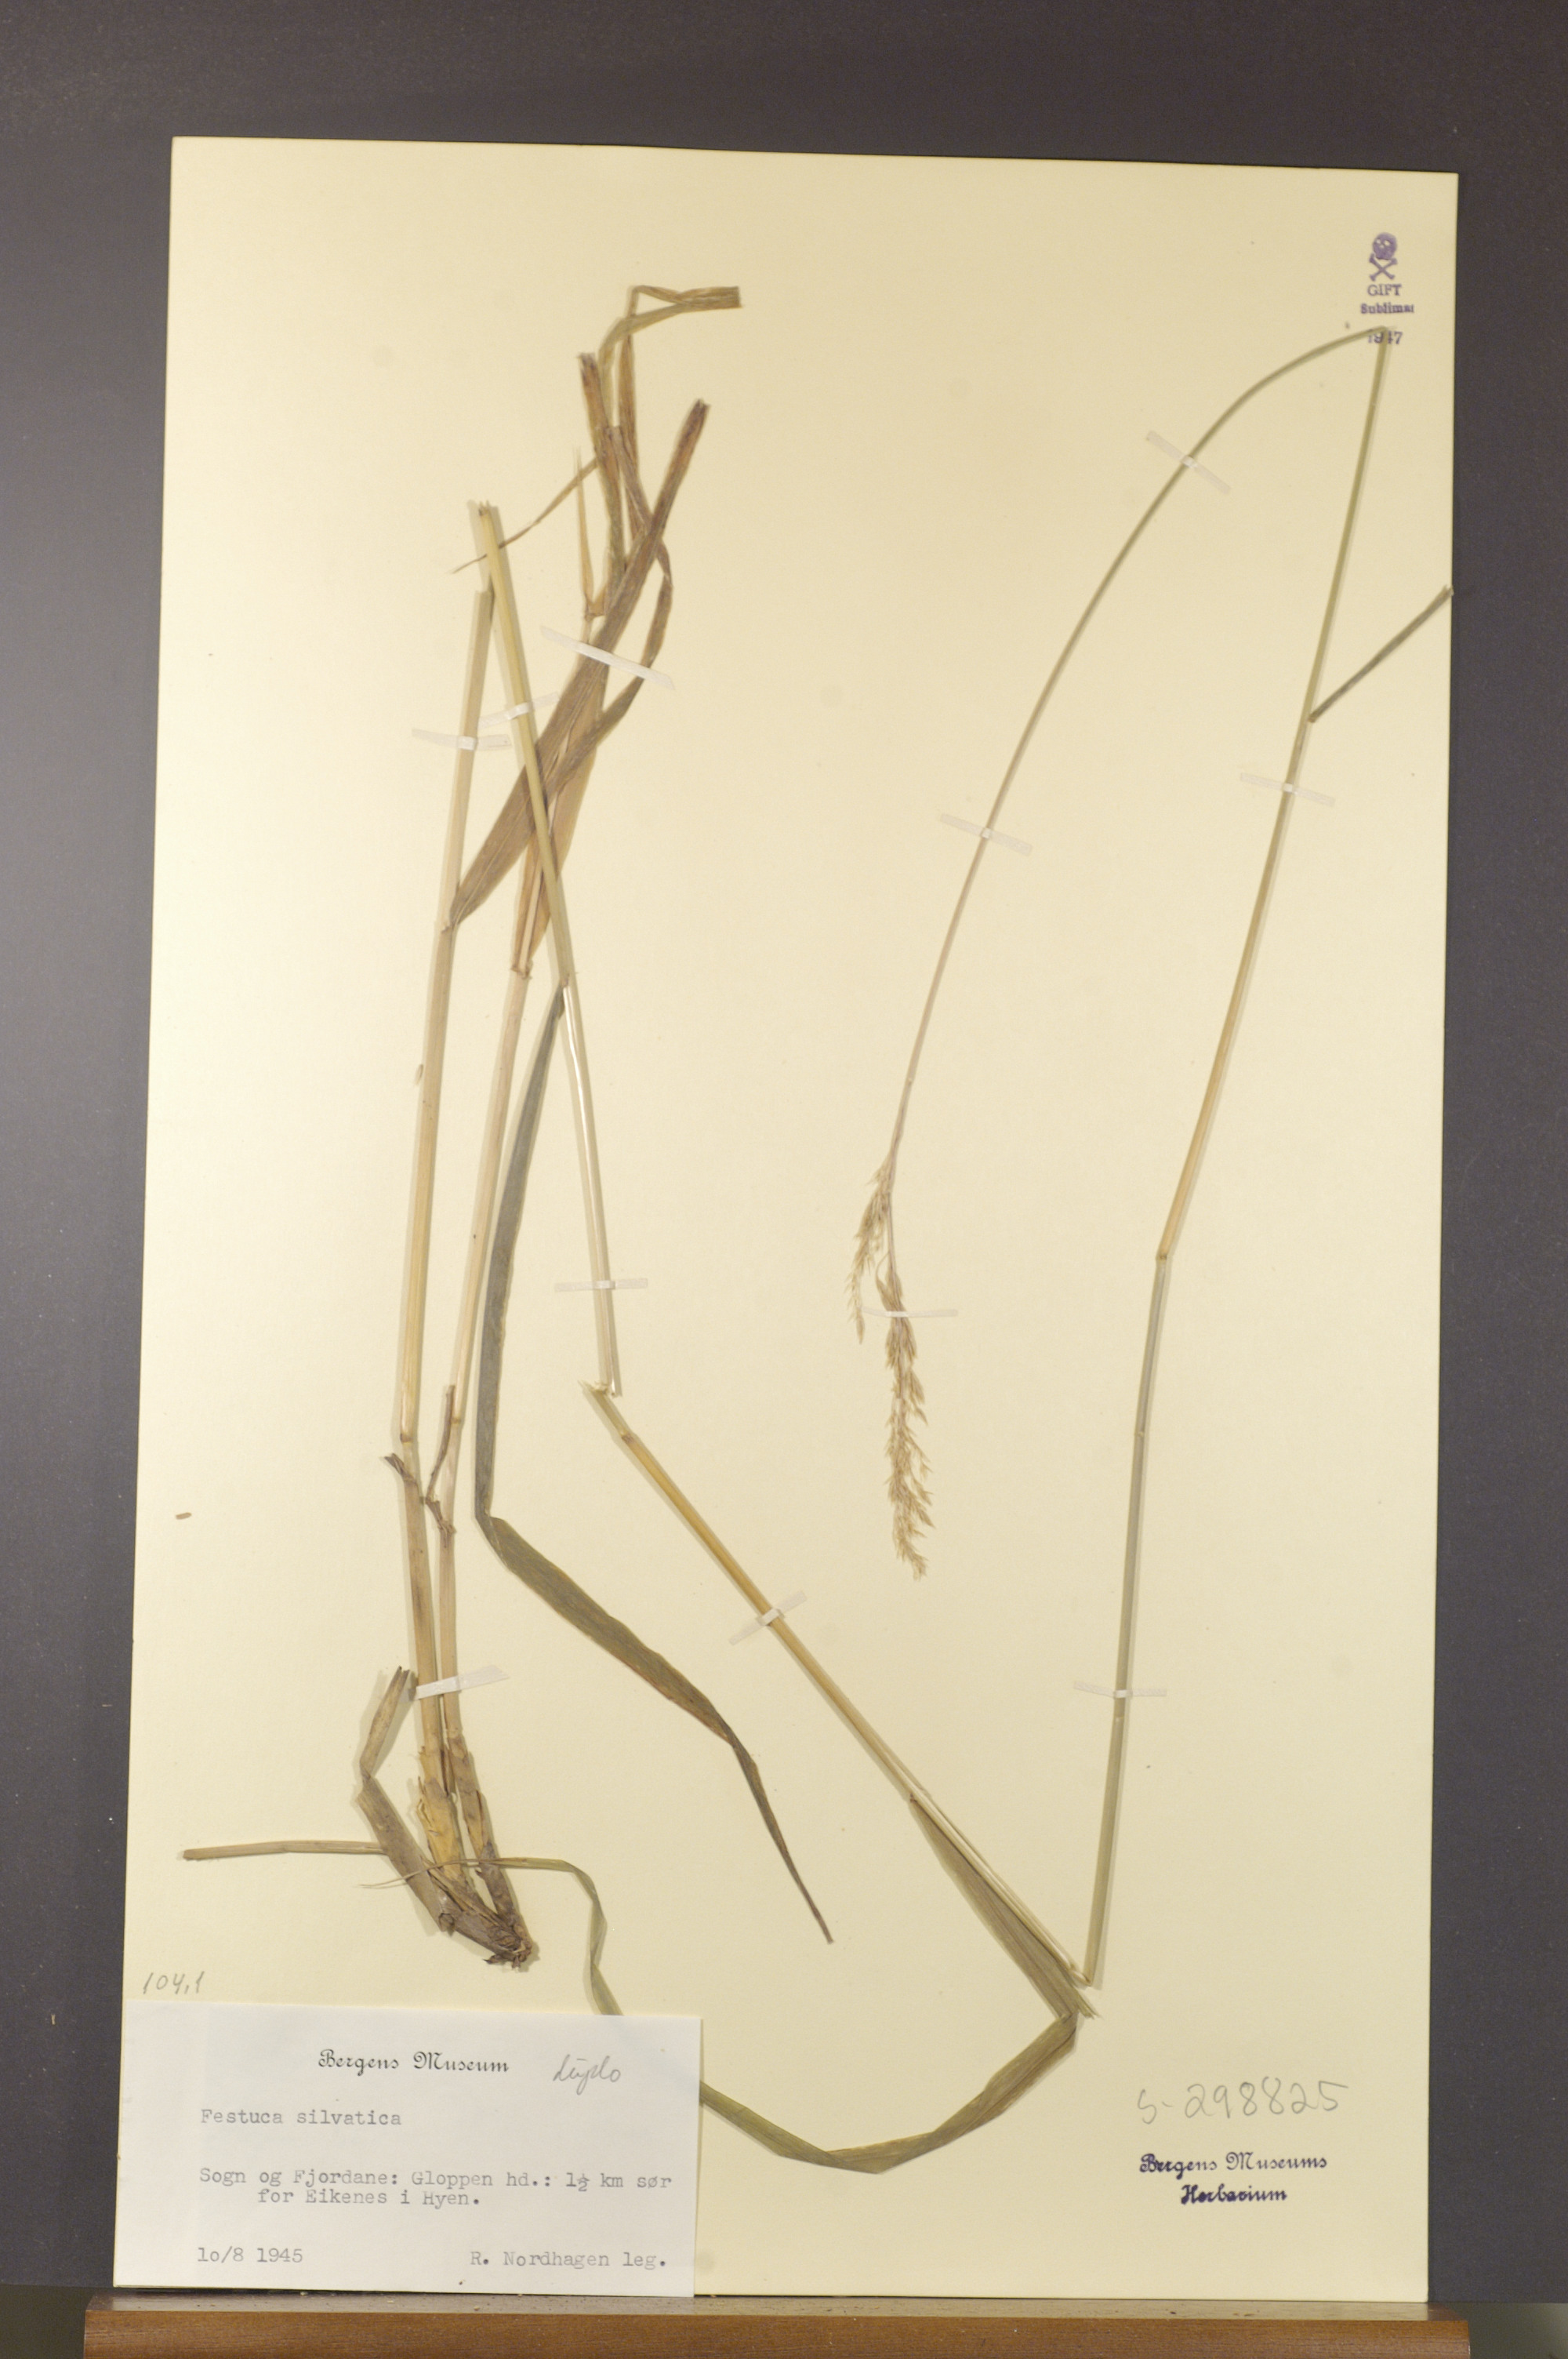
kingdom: Plantae
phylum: Tracheophyta
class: Liliopsida
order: Poales
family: Poaceae
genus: Festuca
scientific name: Festuca altissima
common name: Wood fescue
